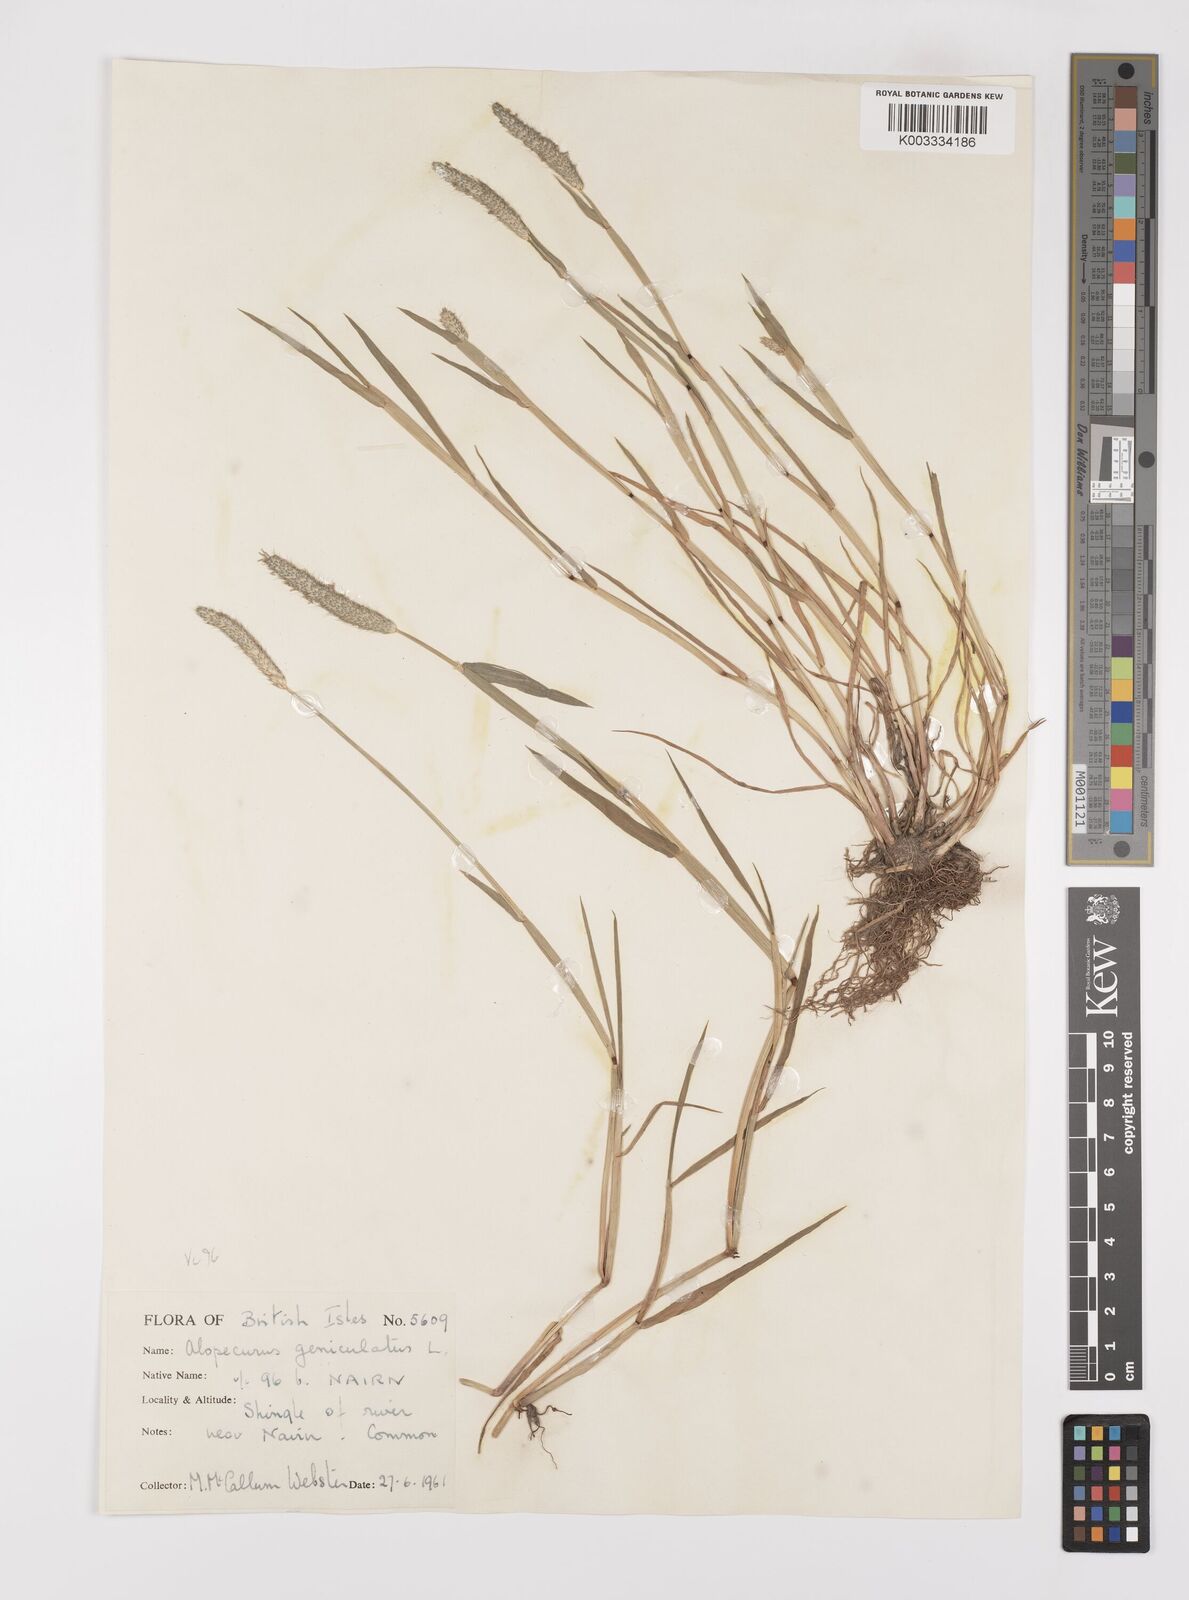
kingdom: Plantae
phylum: Tracheophyta
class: Liliopsida
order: Poales
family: Poaceae
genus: Alopecurus
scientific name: Alopecurus geniculatus
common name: Water foxtail
